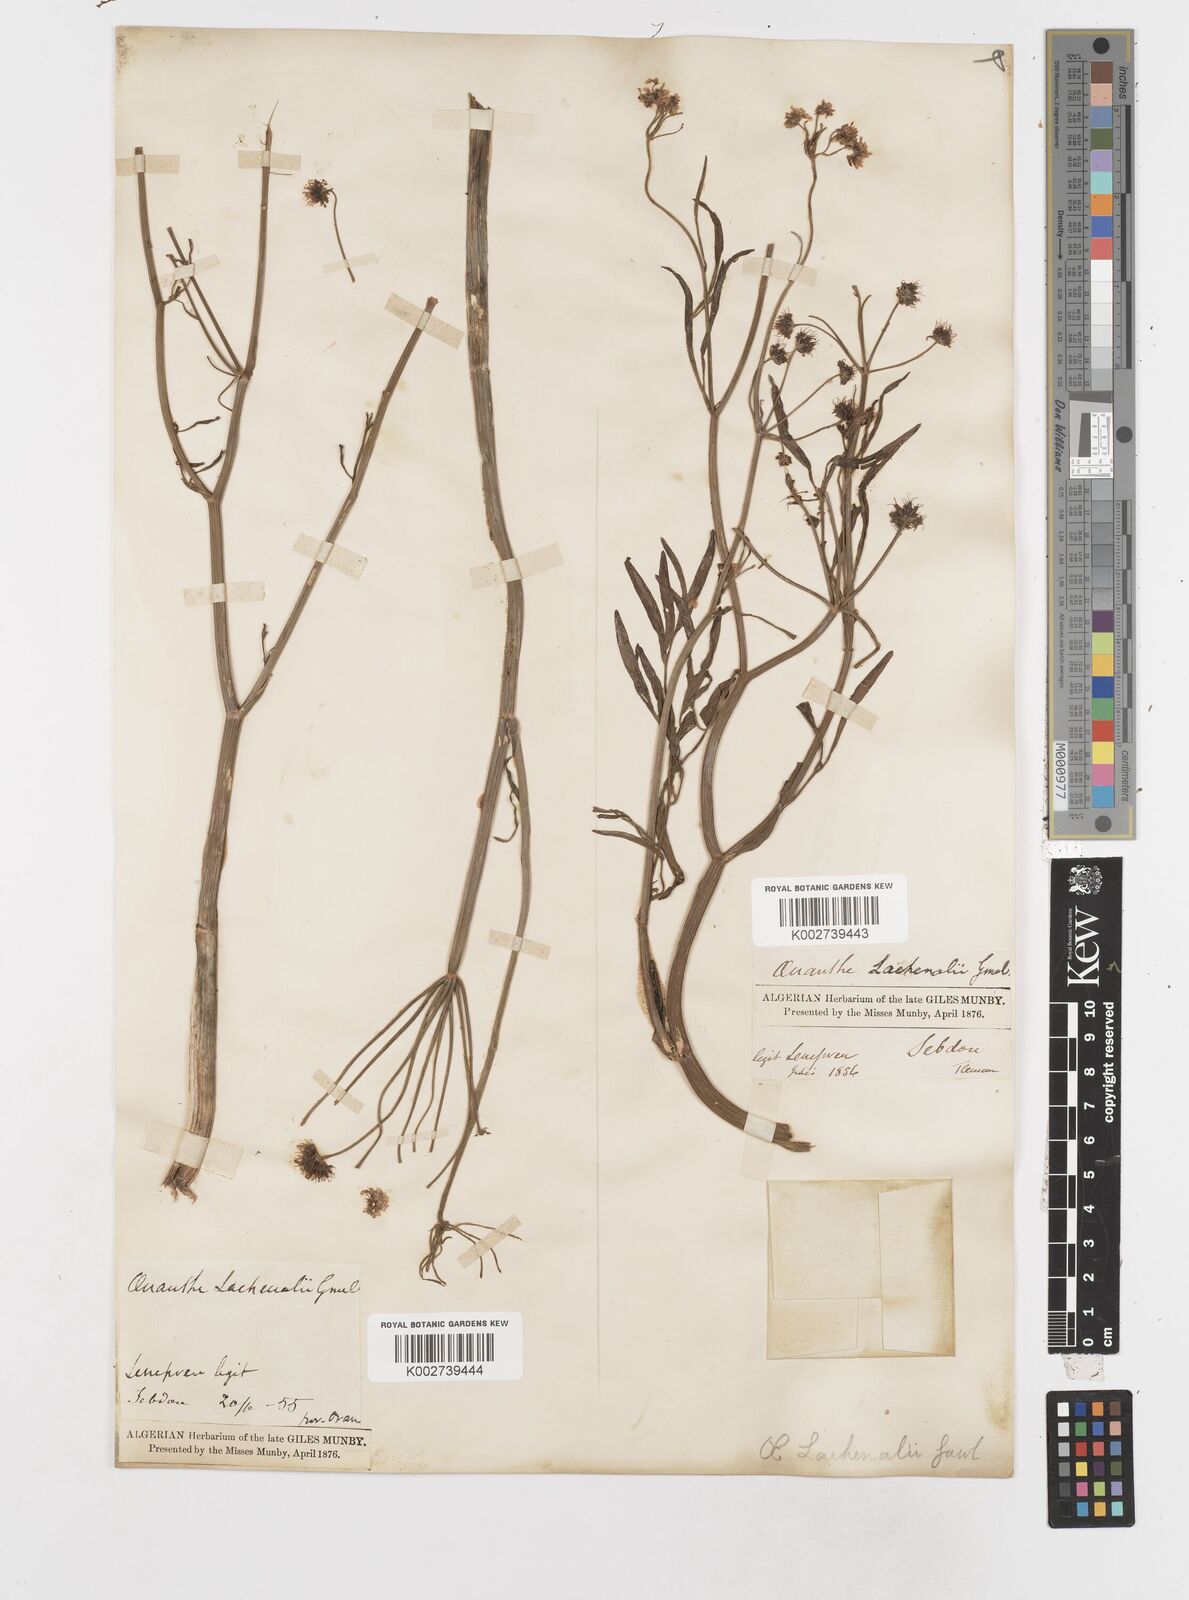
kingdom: Plantae
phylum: Tracheophyta
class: Magnoliopsida
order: Apiales
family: Apiaceae
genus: Oenanthe
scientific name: Oenanthe lachenalii
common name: Parsley water-dropwort
